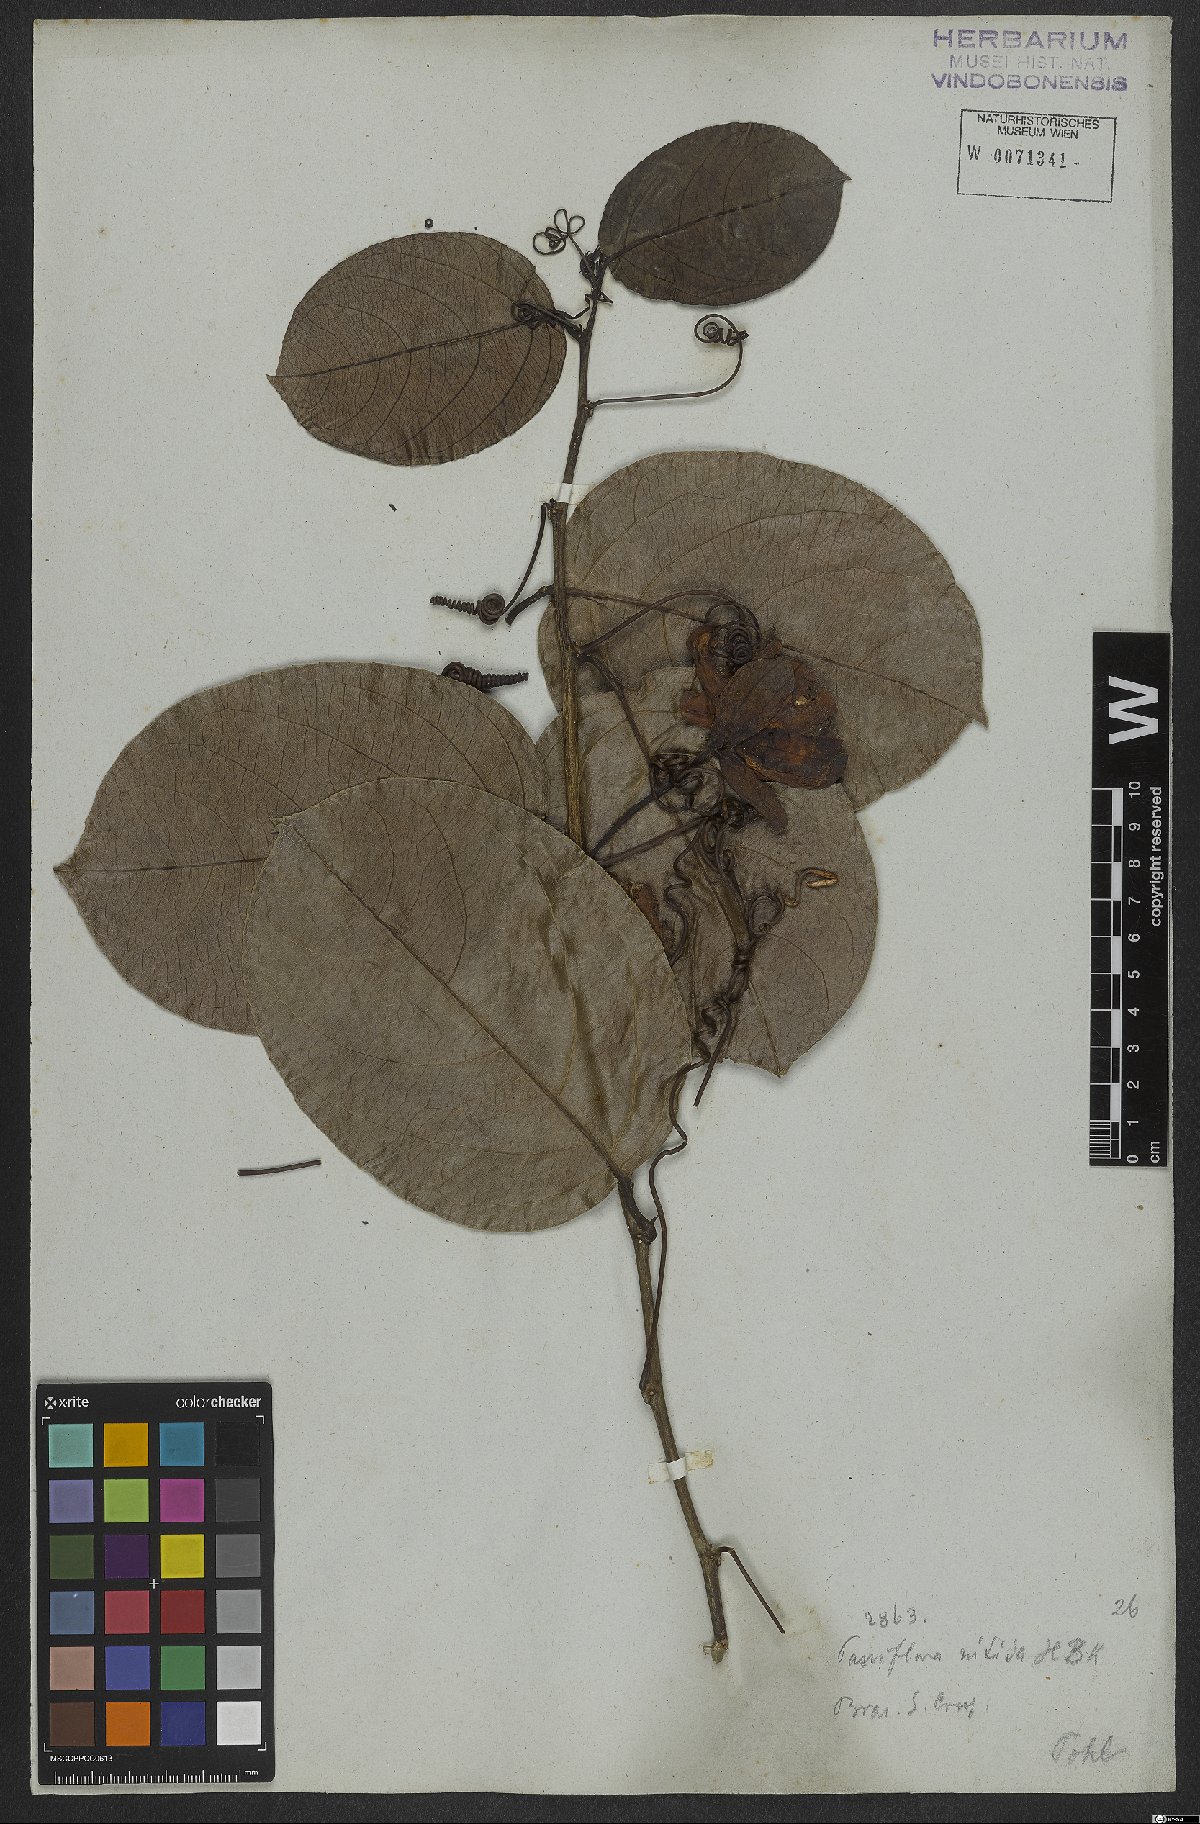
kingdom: Plantae
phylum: Tracheophyta
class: Magnoliopsida
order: Malpighiales
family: Passifloraceae
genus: Passiflora
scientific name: Passiflora nitida
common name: Bell-apple
